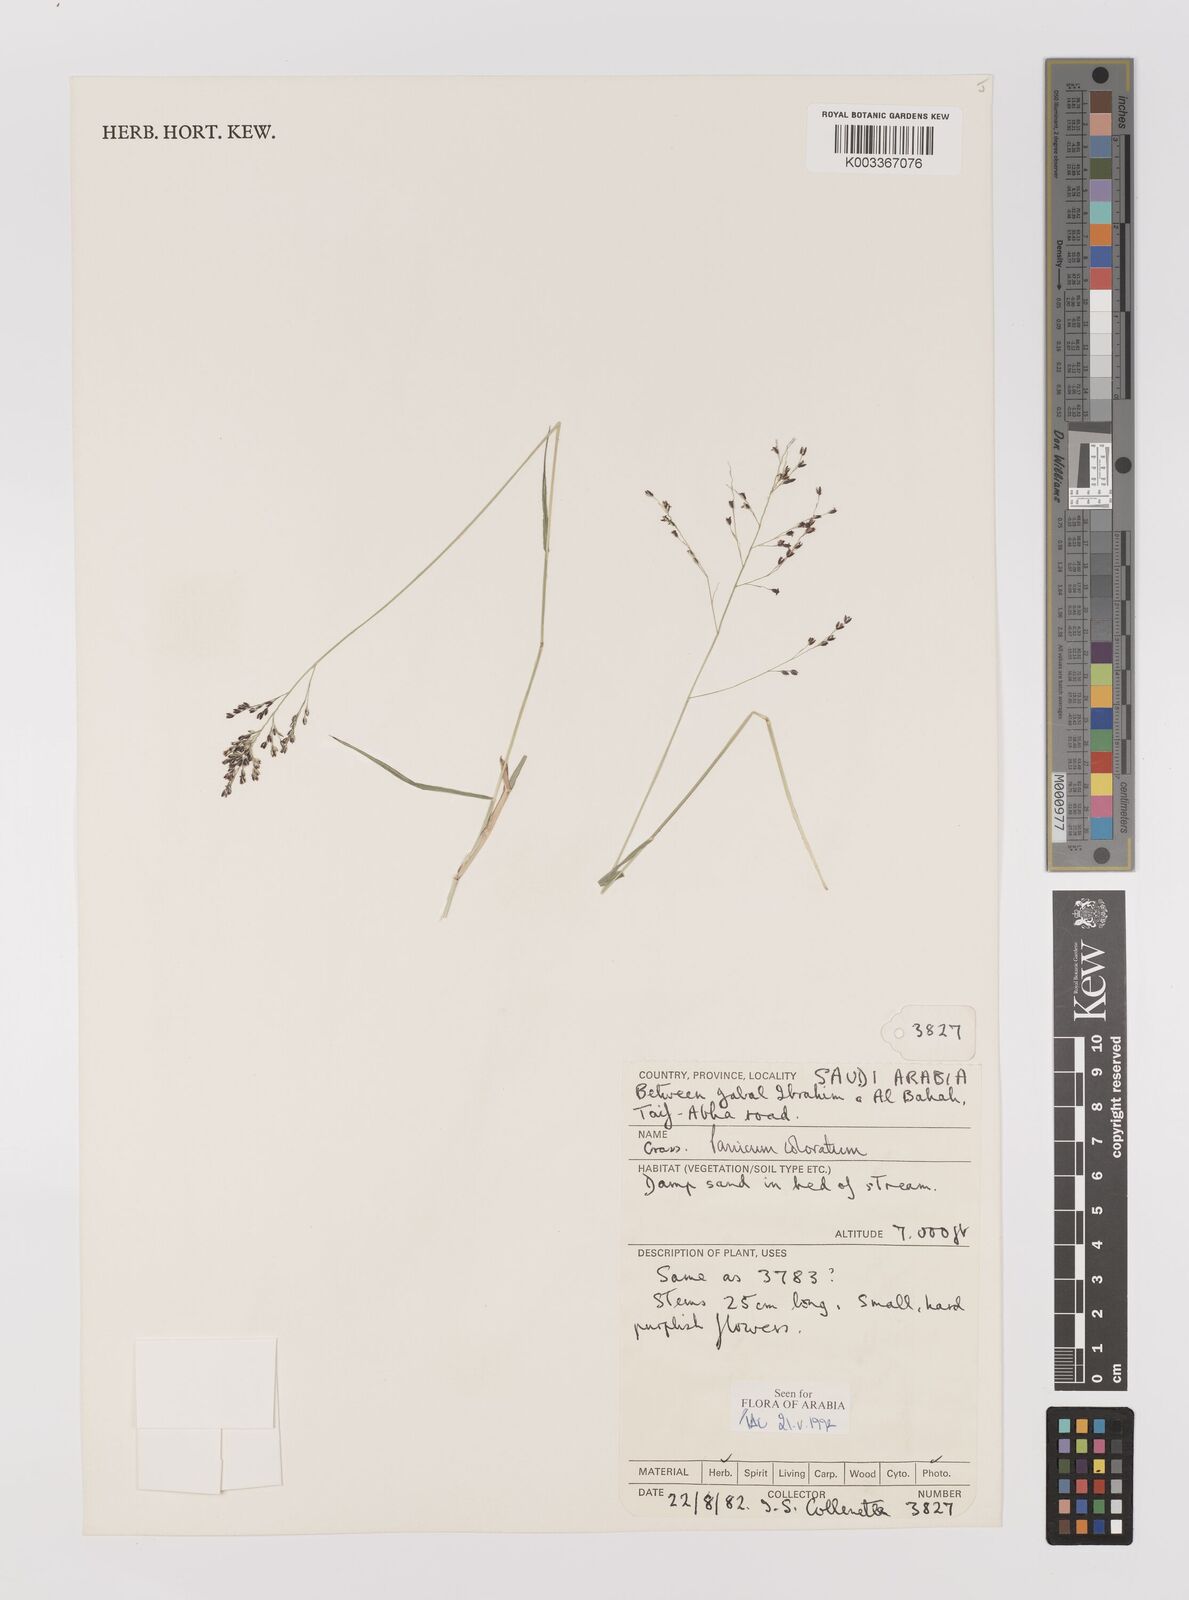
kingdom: Plantae
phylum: Tracheophyta
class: Liliopsida
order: Poales
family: Poaceae
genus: Panicum
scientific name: Panicum coloratum
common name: Kleingrass
